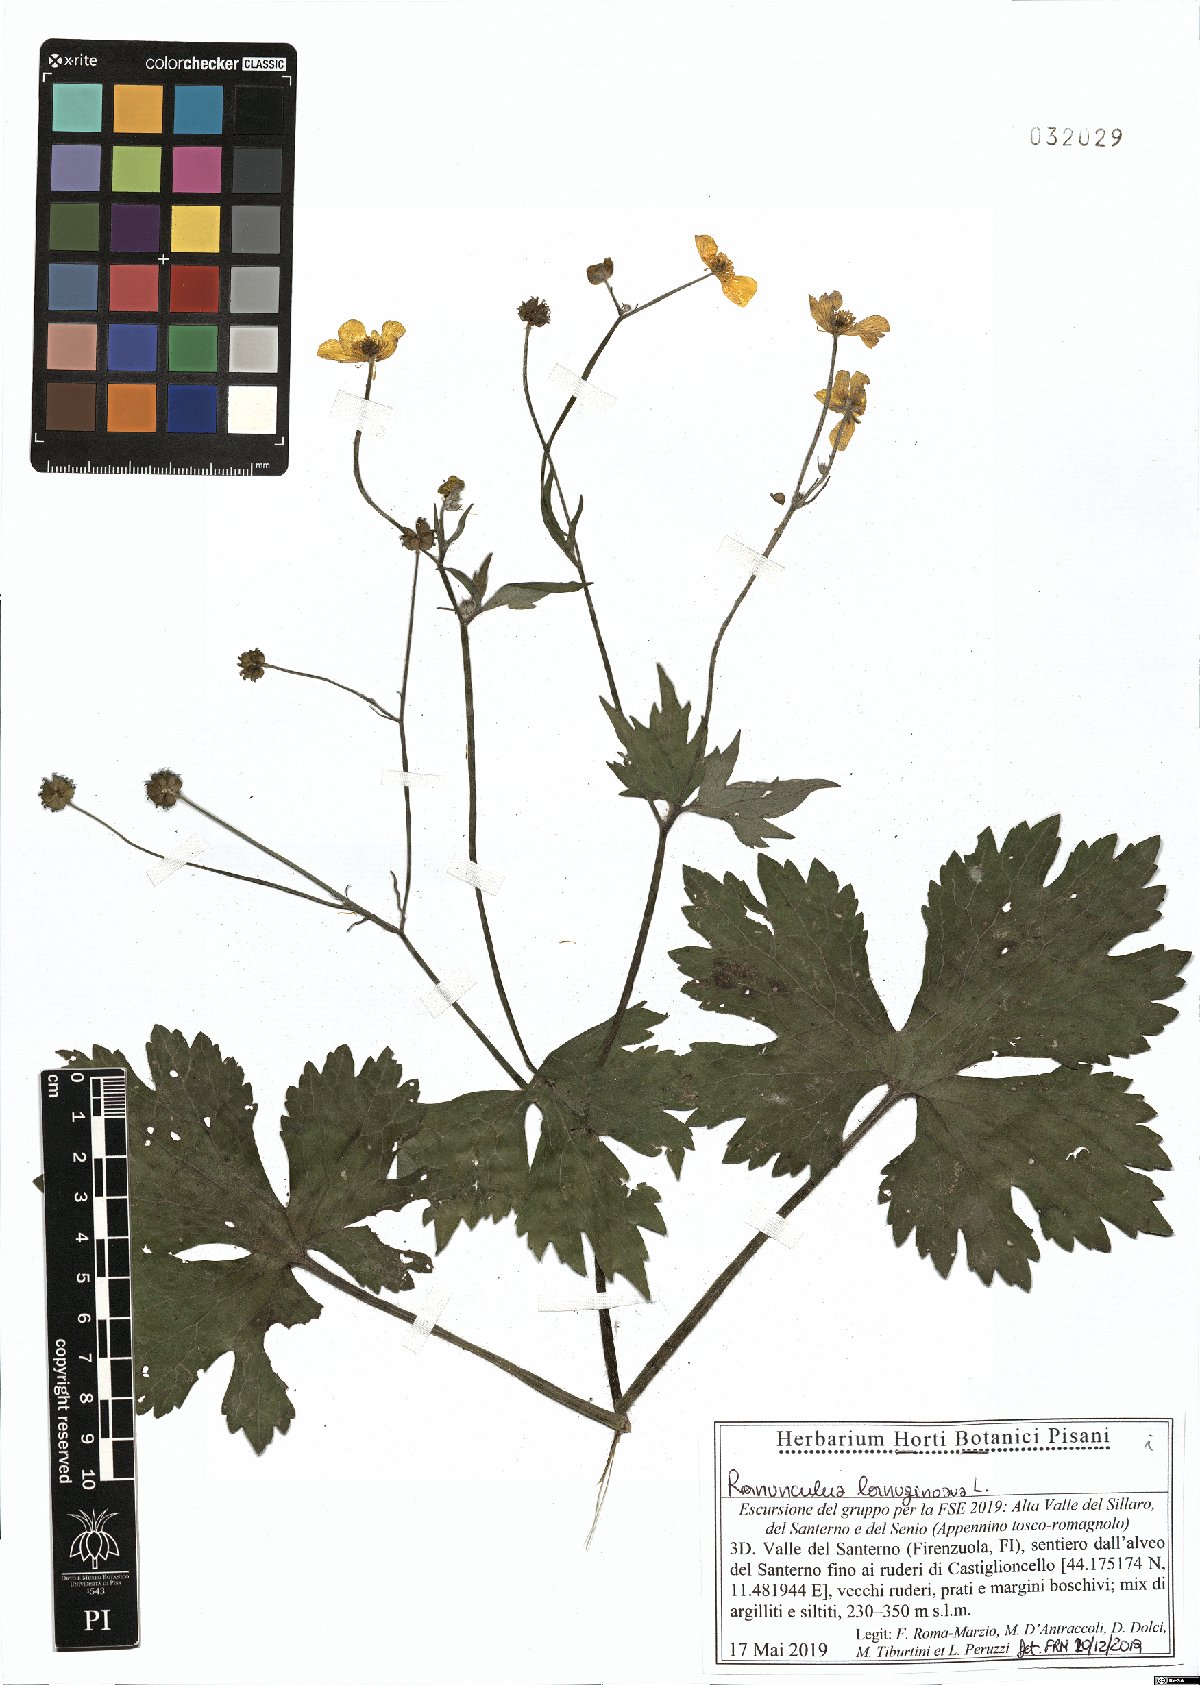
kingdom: Plantae
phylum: Tracheophyta
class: Magnoliopsida
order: Ranunculales
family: Ranunculaceae
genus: Ranunculus
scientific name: Ranunculus lanuginosus
